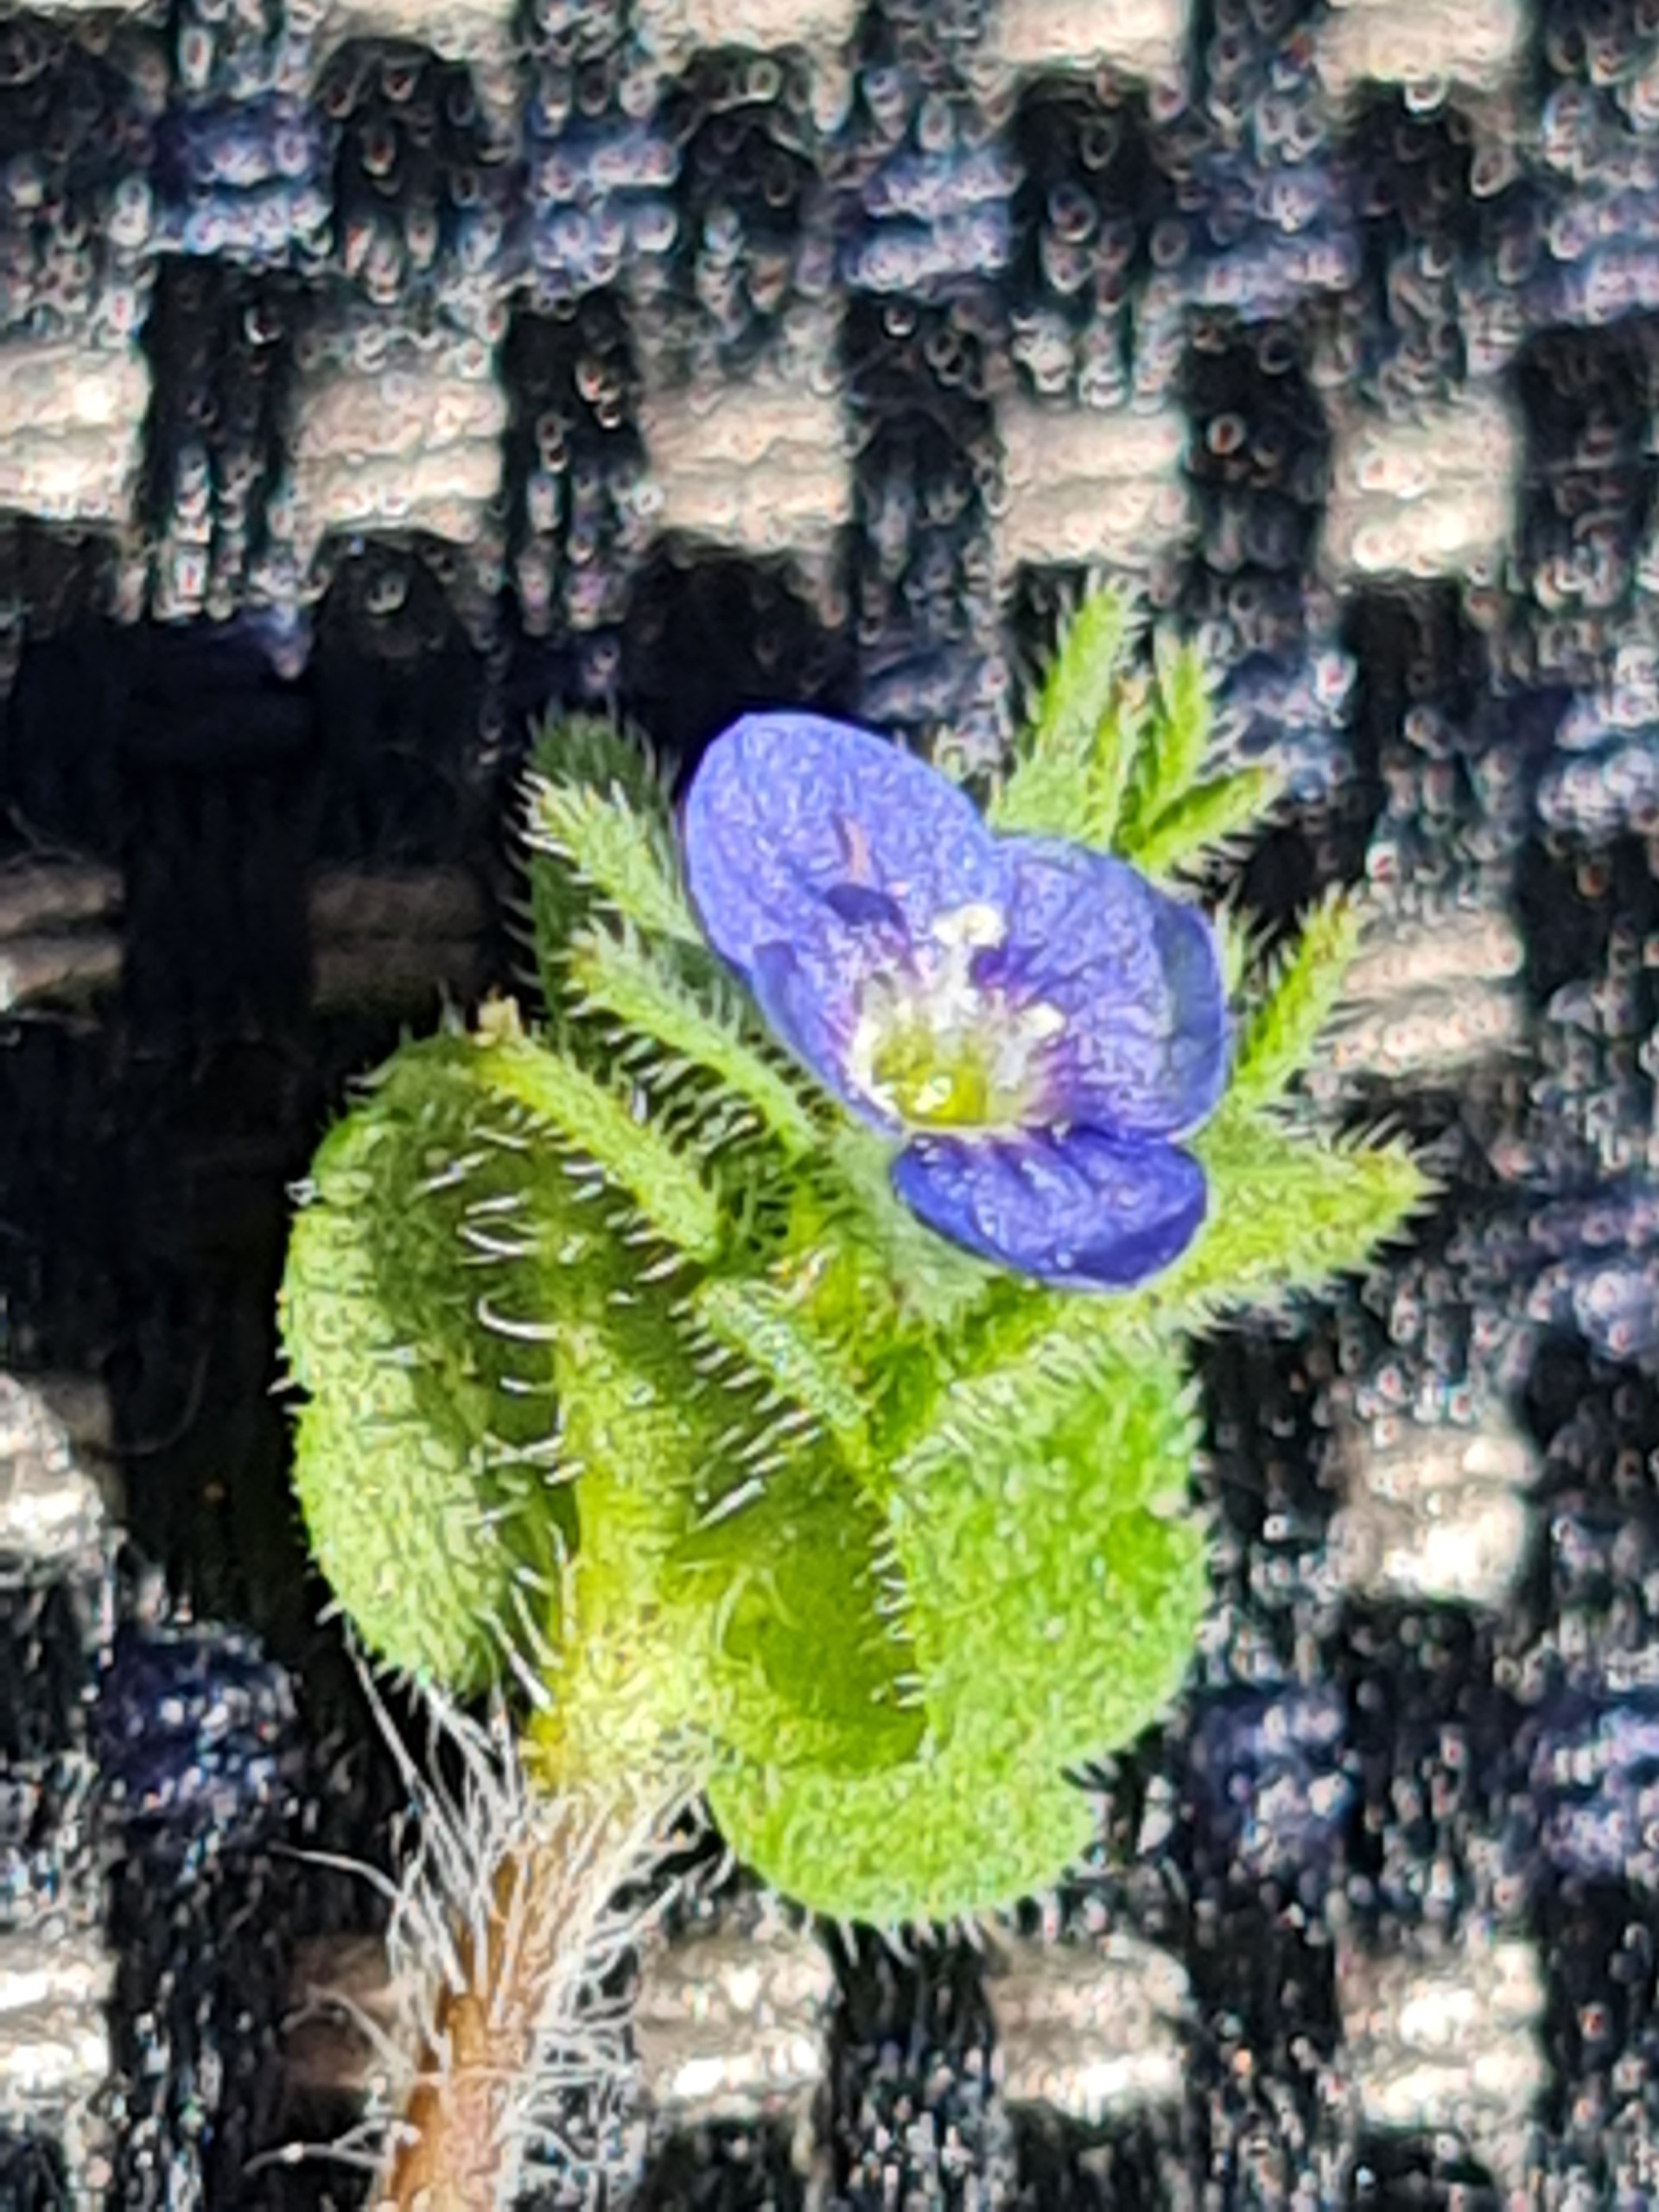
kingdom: Plantae
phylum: Tracheophyta
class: Magnoliopsida
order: Lamiales
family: Plantaginaceae
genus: Veronica
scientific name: Veronica
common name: Ærenprisslægten
